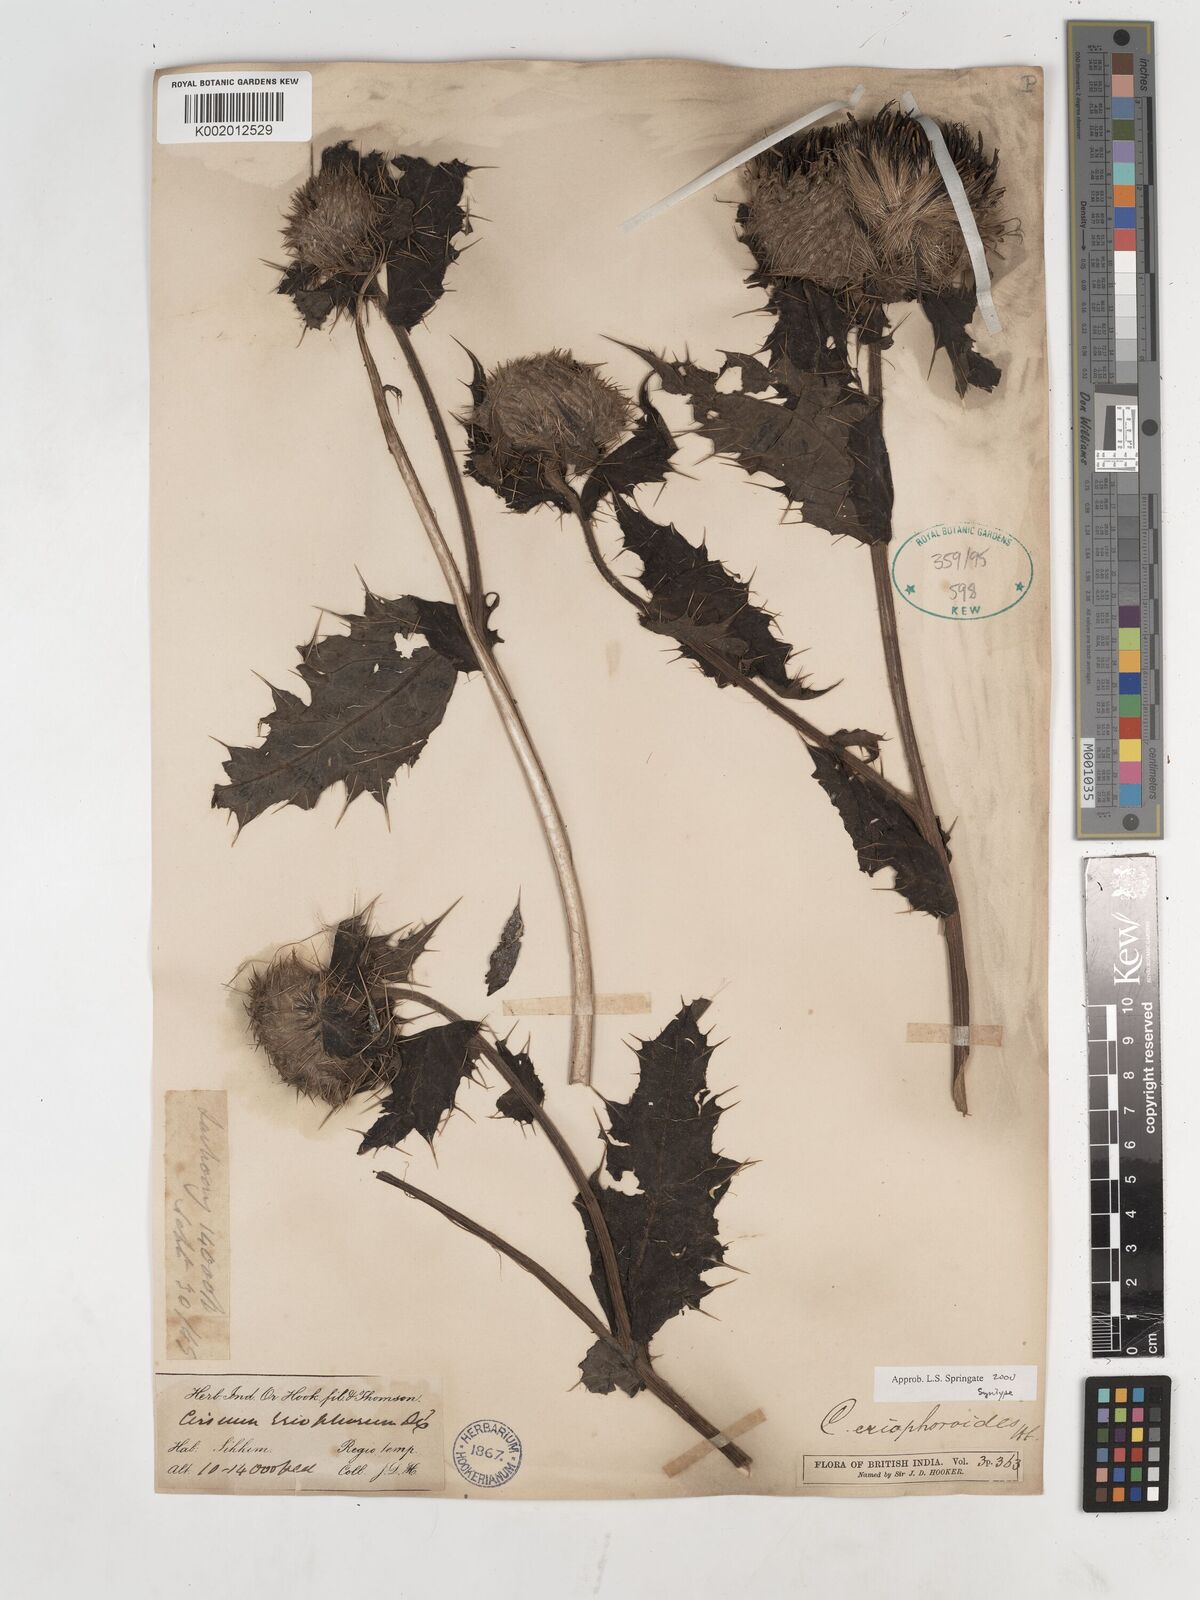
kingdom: Plantae
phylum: Tracheophyta
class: Magnoliopsida
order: Asterales
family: Asteraceae
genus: Cirsium
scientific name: Cirsium eriophoroides
